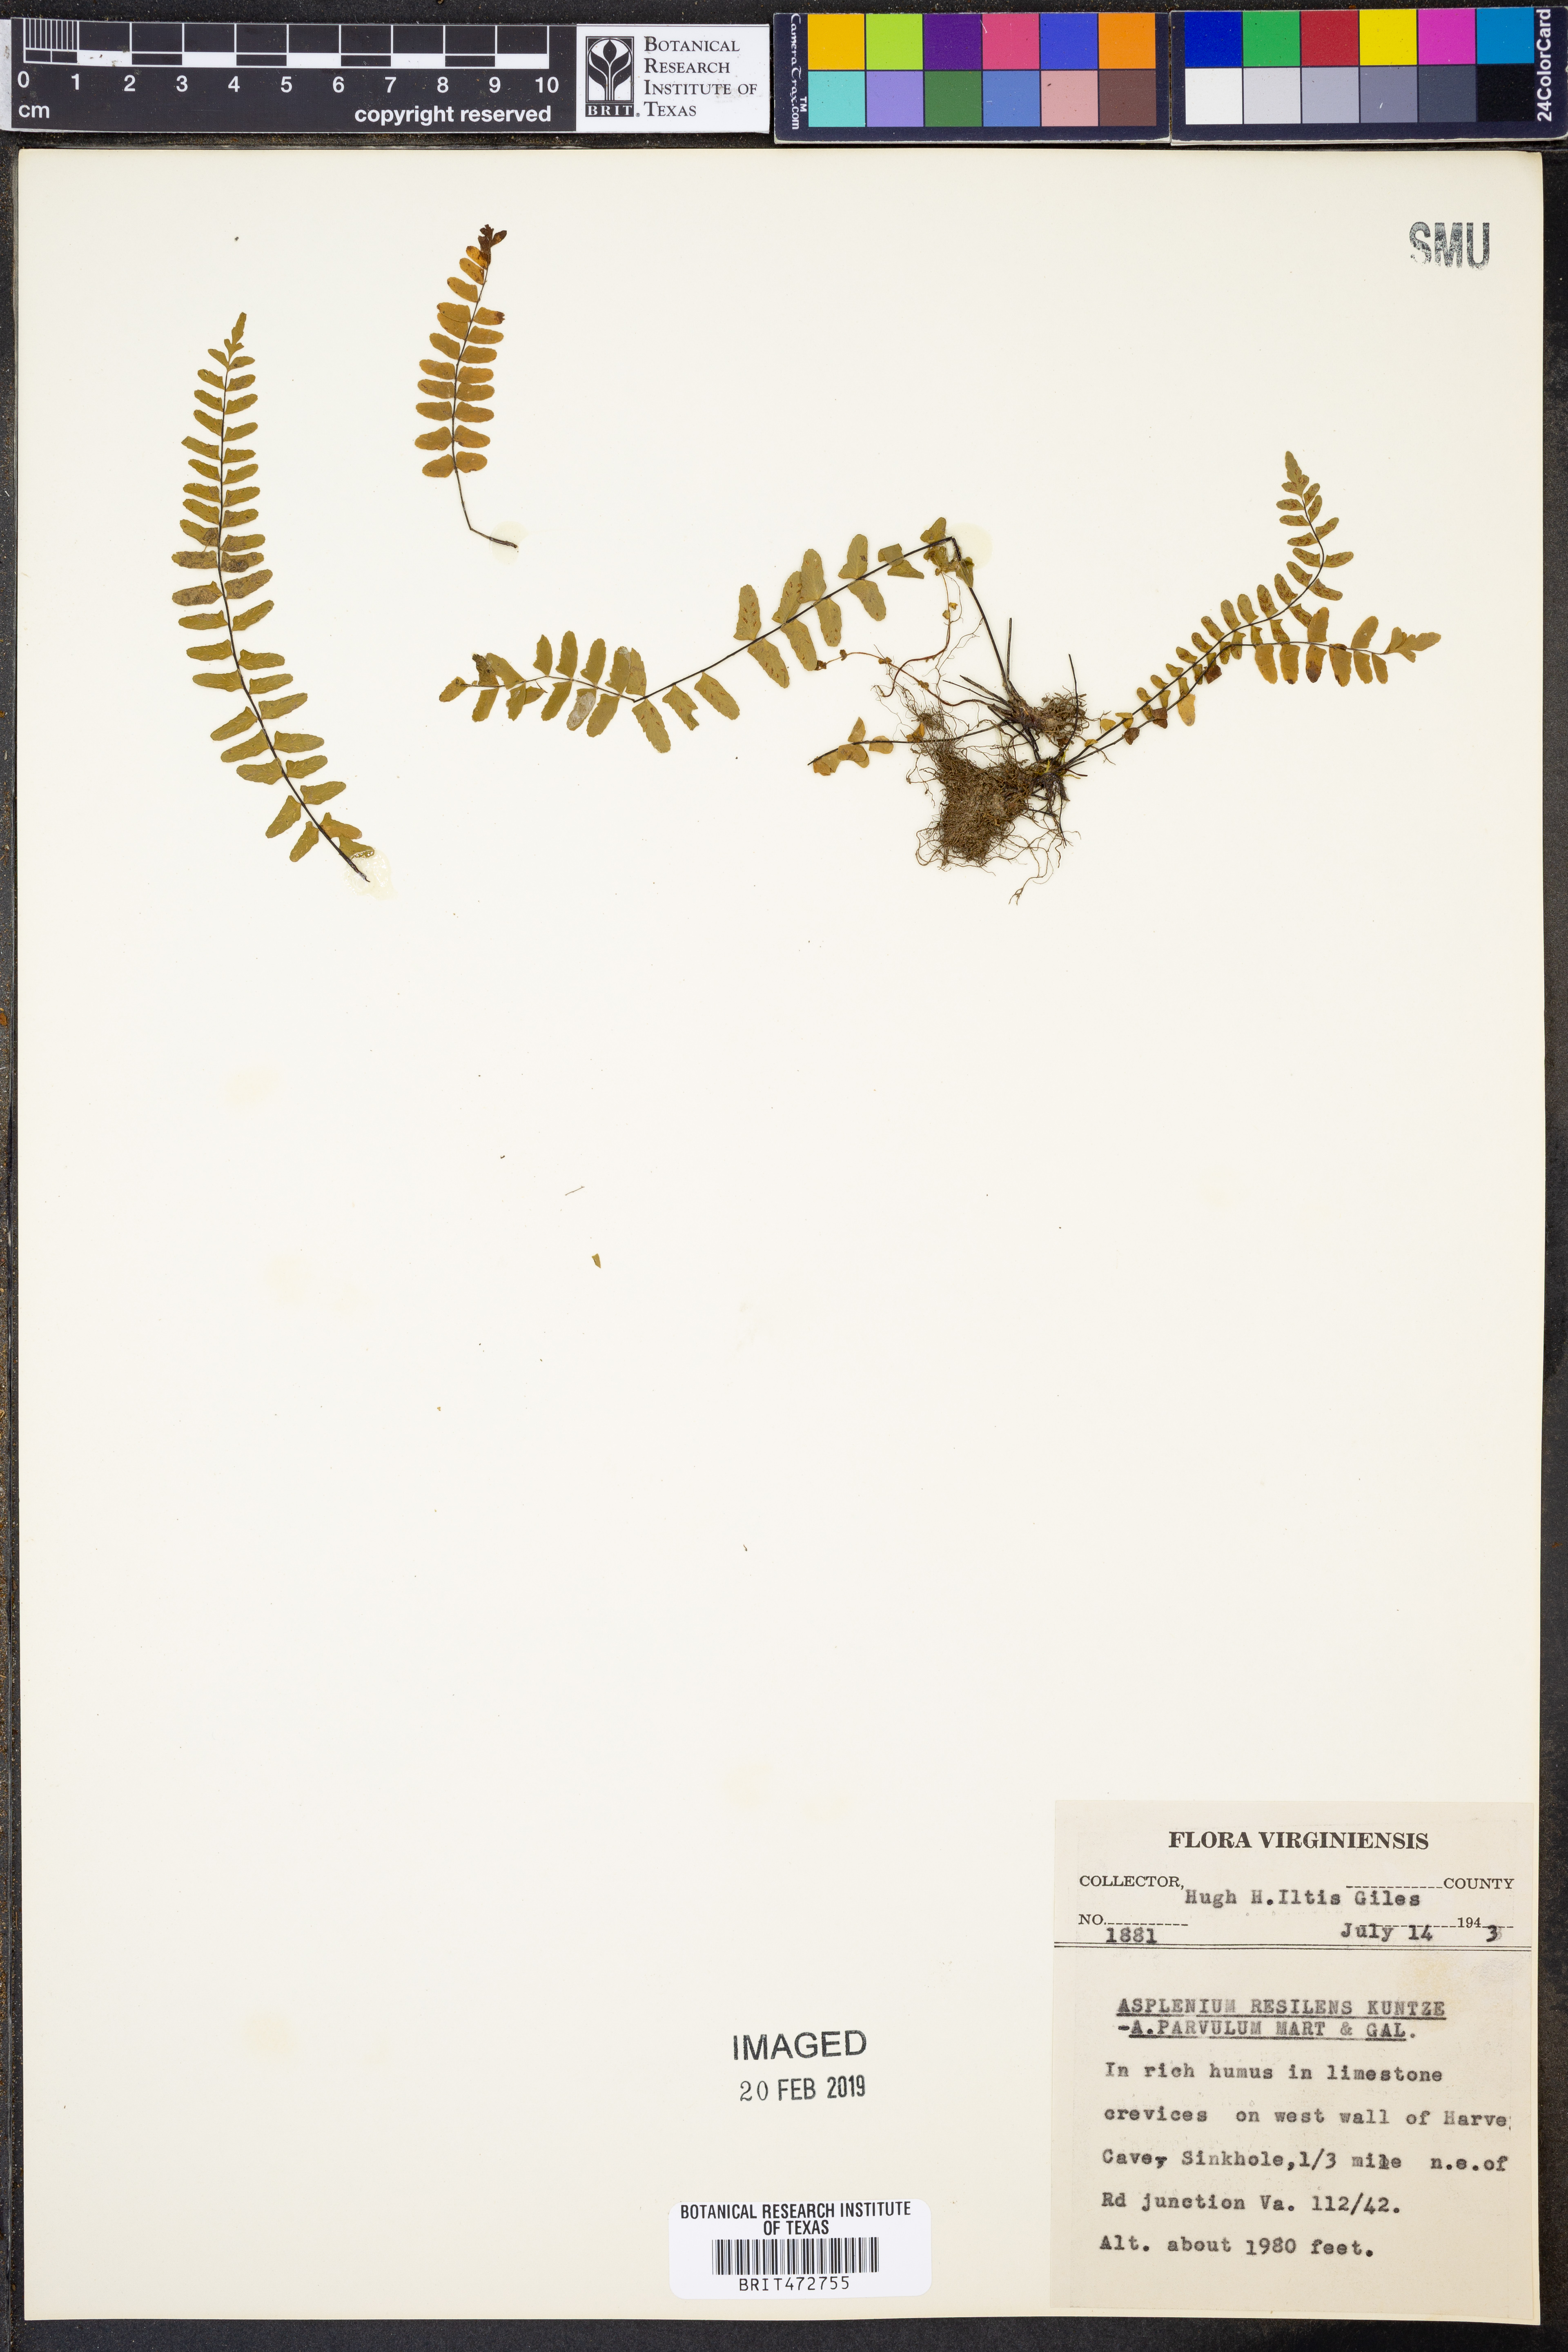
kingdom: Plantae
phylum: Tracheophyta
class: Polypodiopsida
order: Polypodiales
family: Aspleniaceae
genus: Asplenium
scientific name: Asplenium resiliens
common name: Blackstem spleenwort
